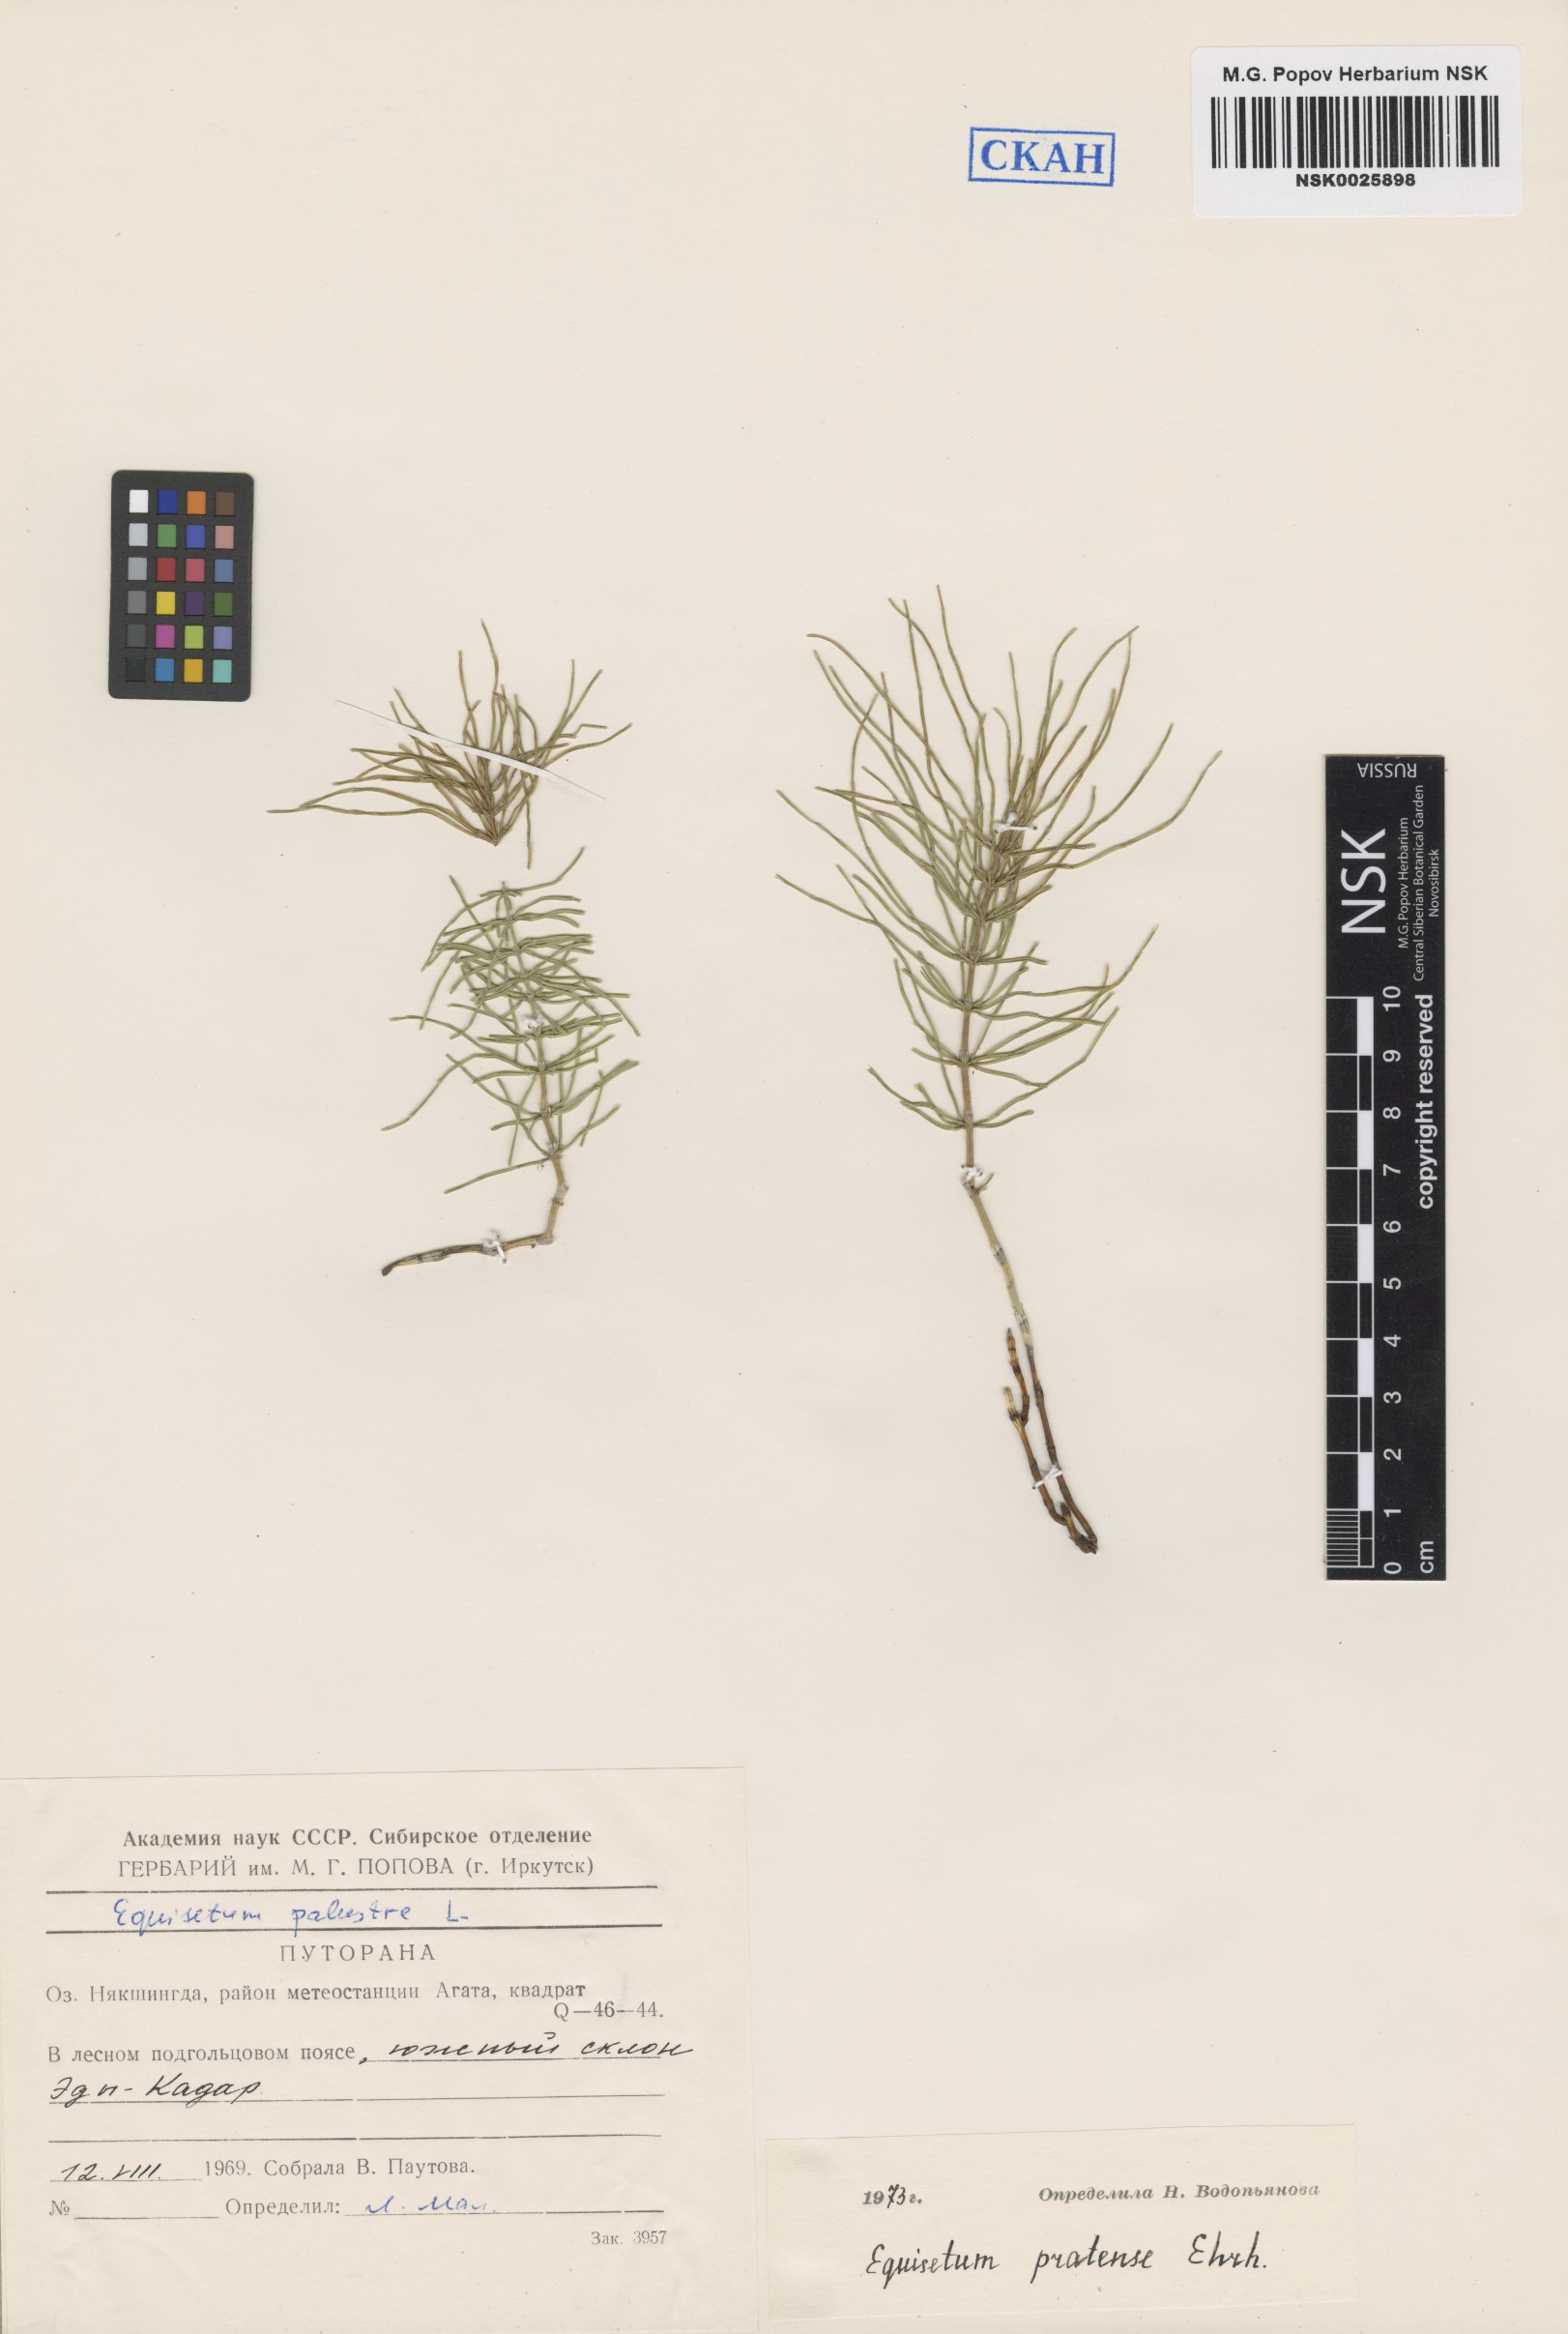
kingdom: Plantae
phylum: Tracheophyta
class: Polypodiopsida
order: Equisetales
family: Equisetaceae
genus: Equisetum
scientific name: Equisetum pratense
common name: Meadow horsetail
